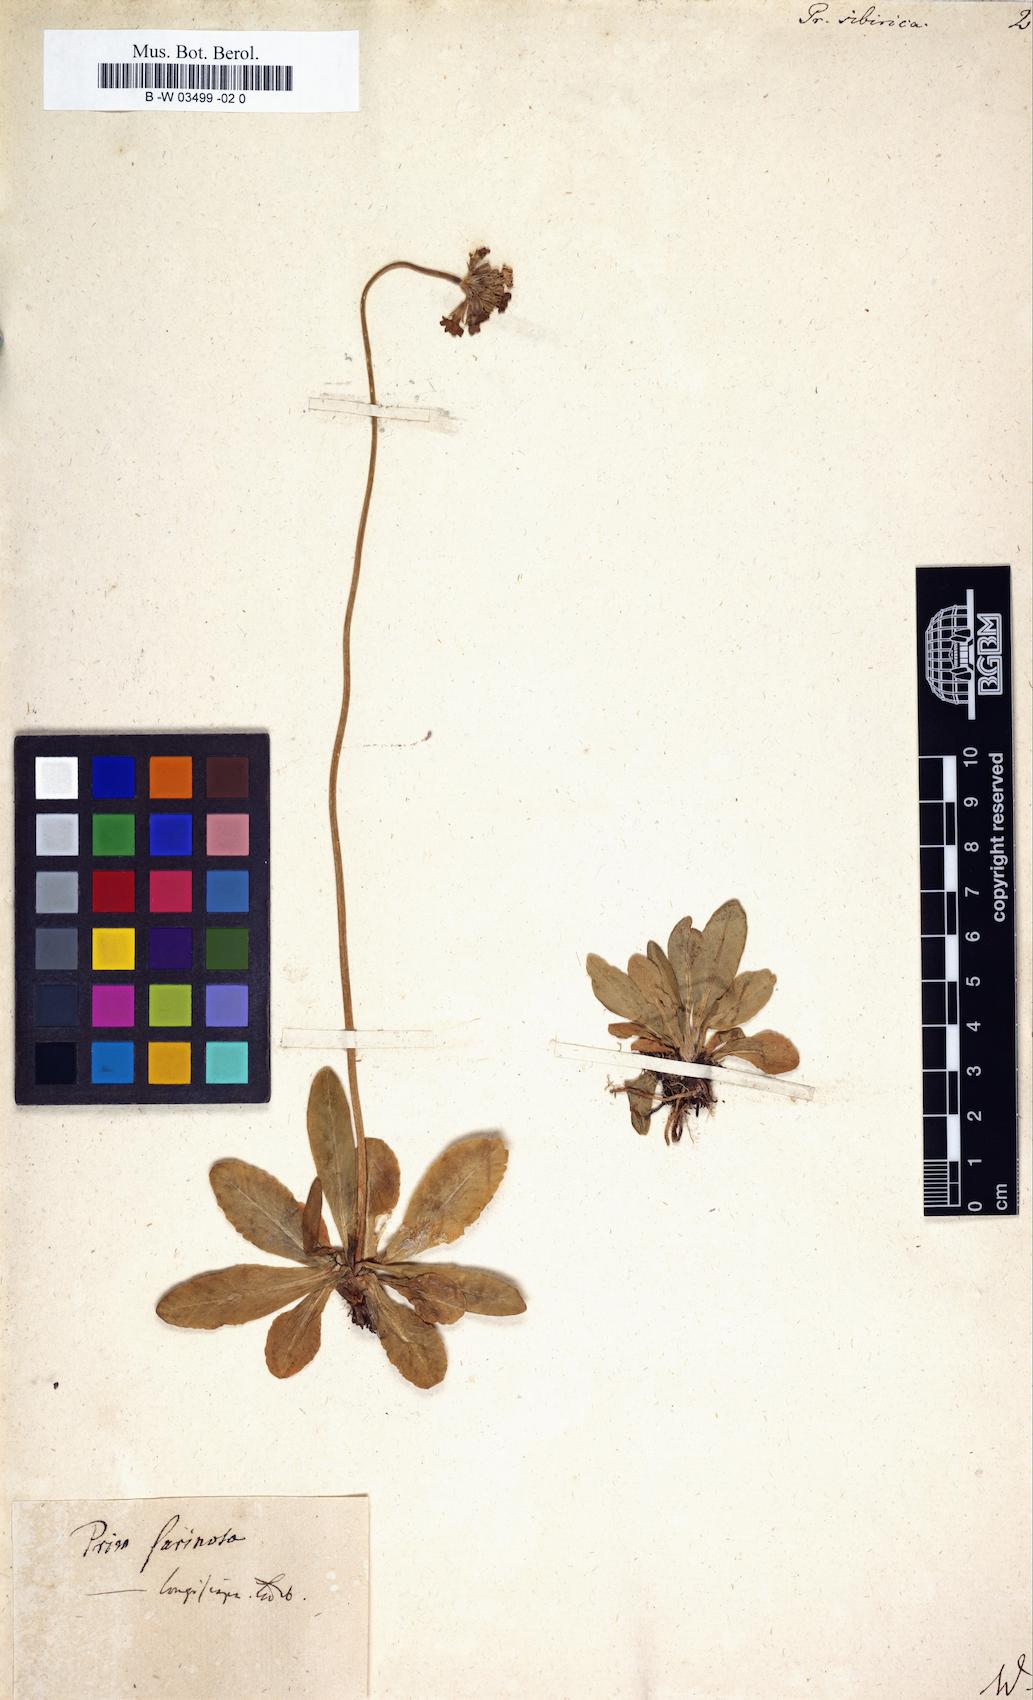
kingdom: Plantae
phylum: Tracheophyta
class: Magnoliopsida
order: Ericales
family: Primulaceae
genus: Primula
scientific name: Primula nutans
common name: Siberian primrose
